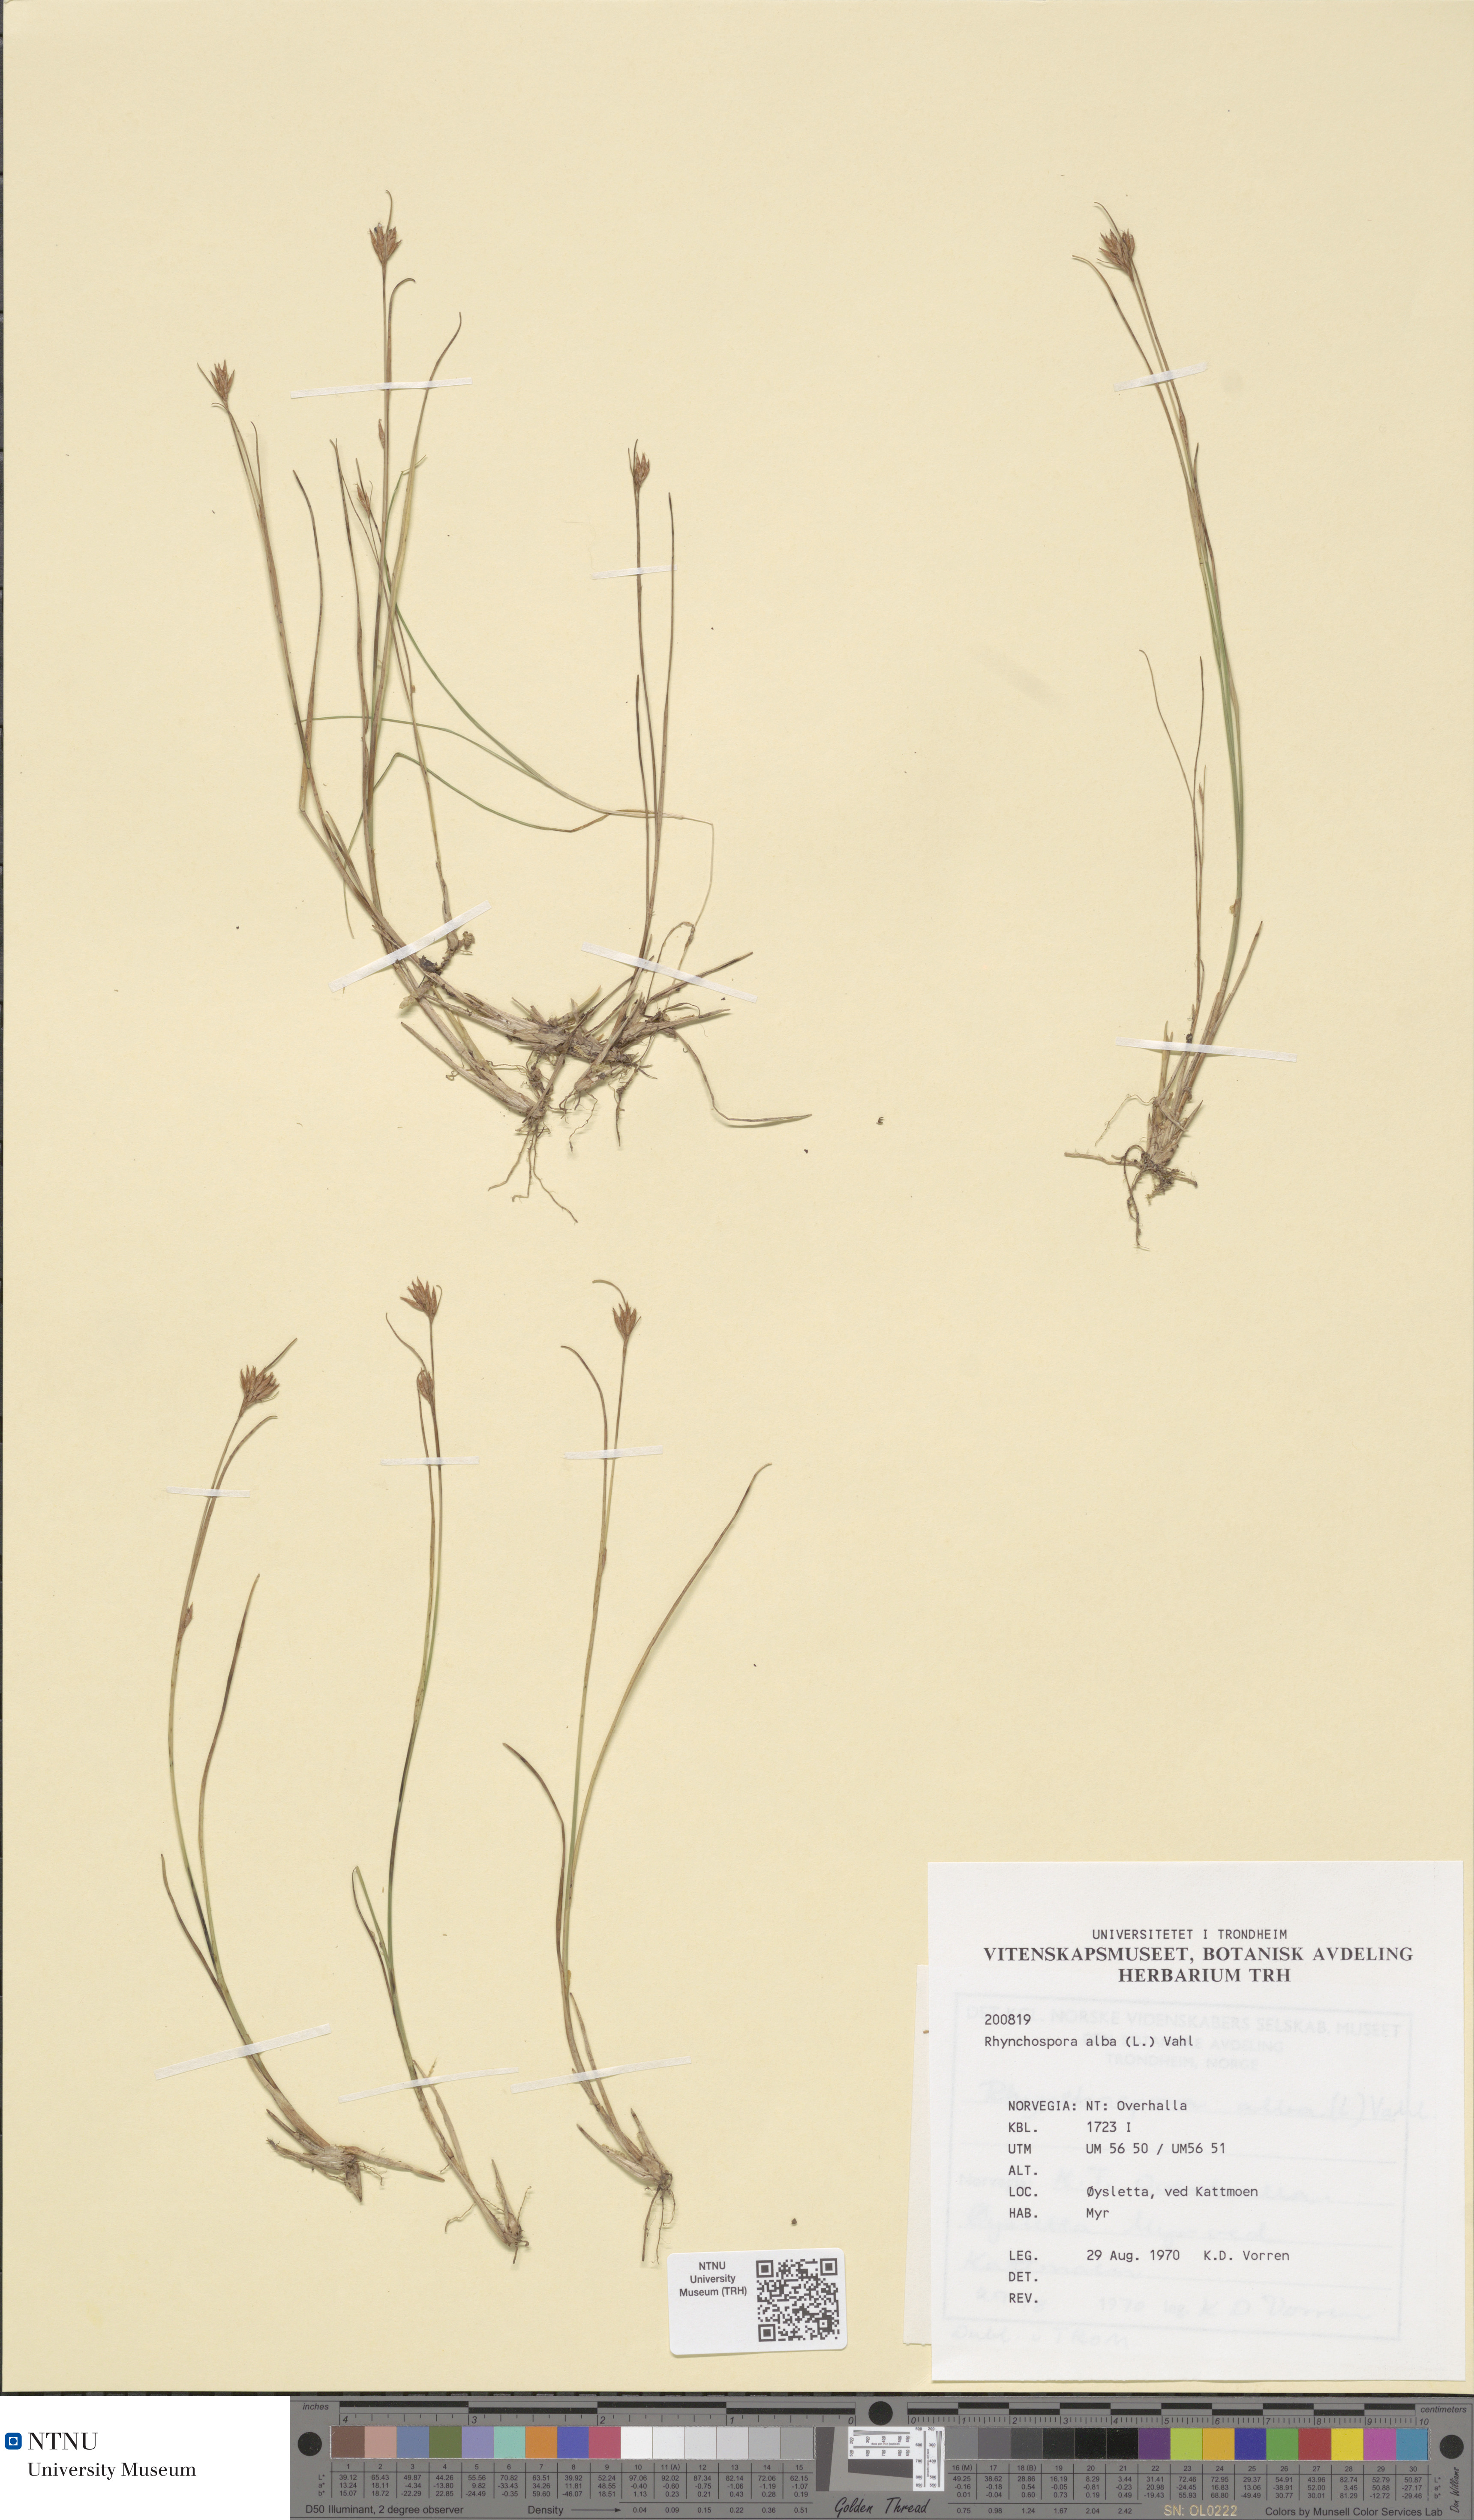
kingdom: Plantae
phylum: Tracheophyta
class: Liliopsida
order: Poales
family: Cyperaceae
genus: Rhynchospora
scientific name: Rhynchospora alba
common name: White beak-sedge
